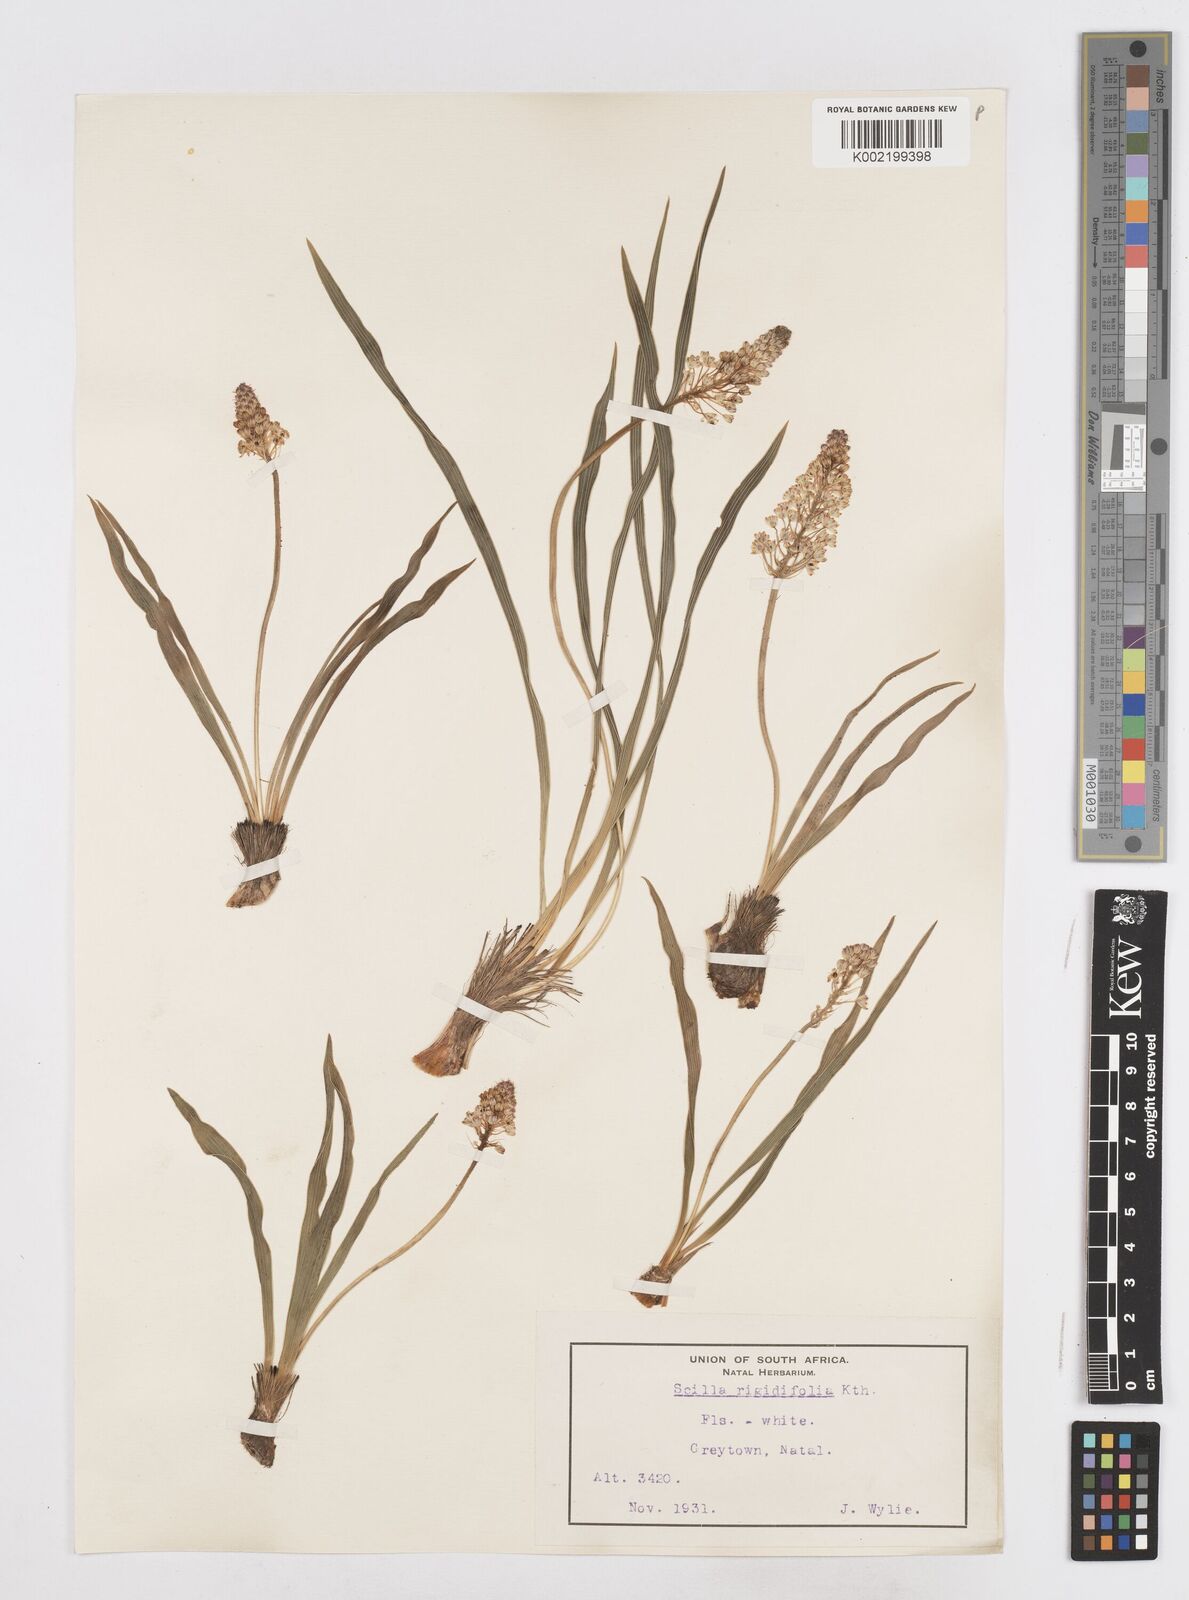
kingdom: Plantae
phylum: Tracheophyta
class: Liliopsida
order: Asparagales
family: Asparagaceae
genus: Schizocarphus
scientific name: Schizocarphus nervosus
